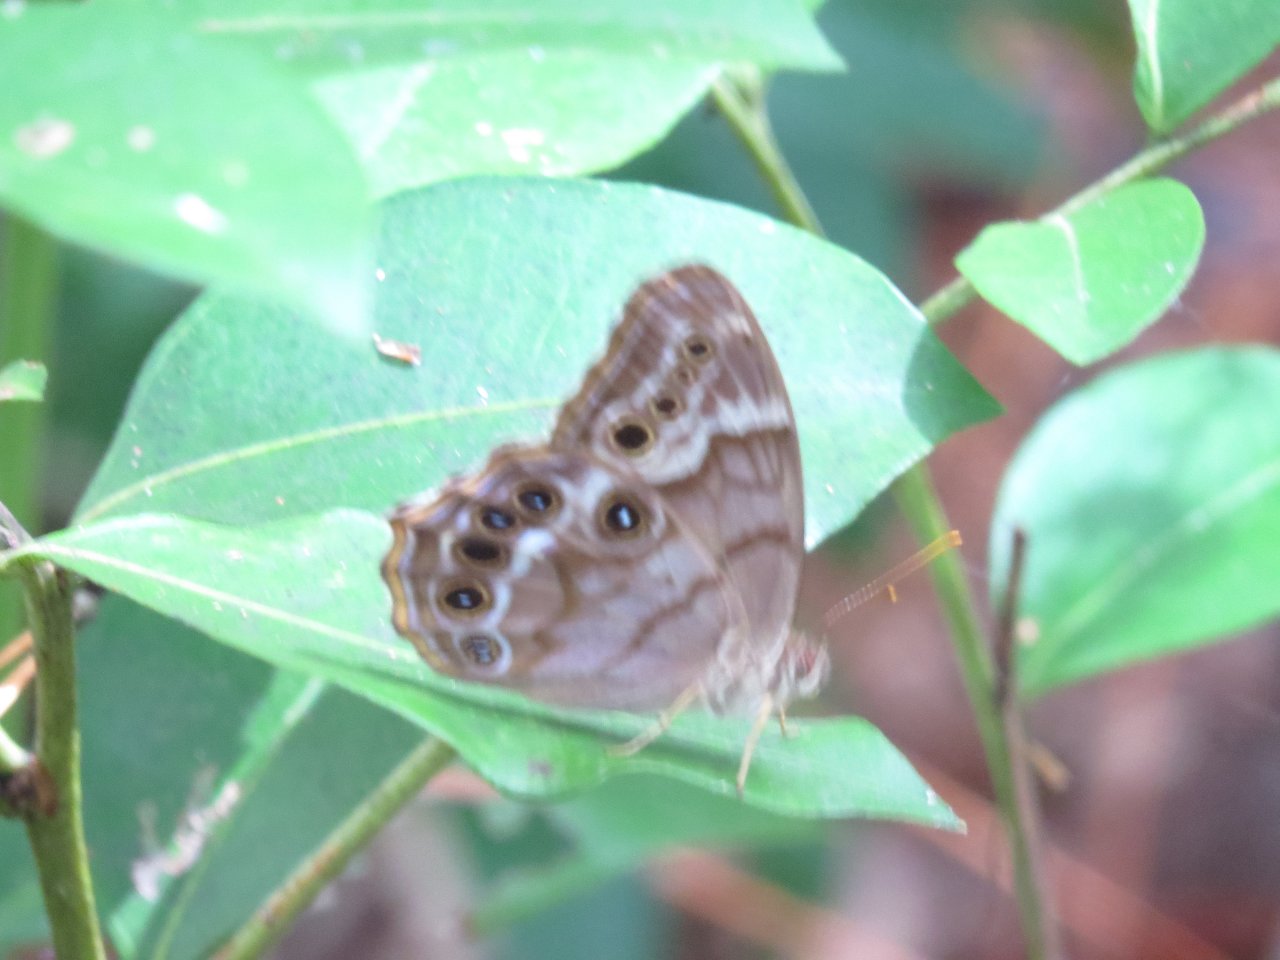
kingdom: Animalia
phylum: Arthropoda
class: Insecta
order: Lepidoptera
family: Nymphalidae
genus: Enodia
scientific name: Enodia portlandia
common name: Southern Pearly Eye
